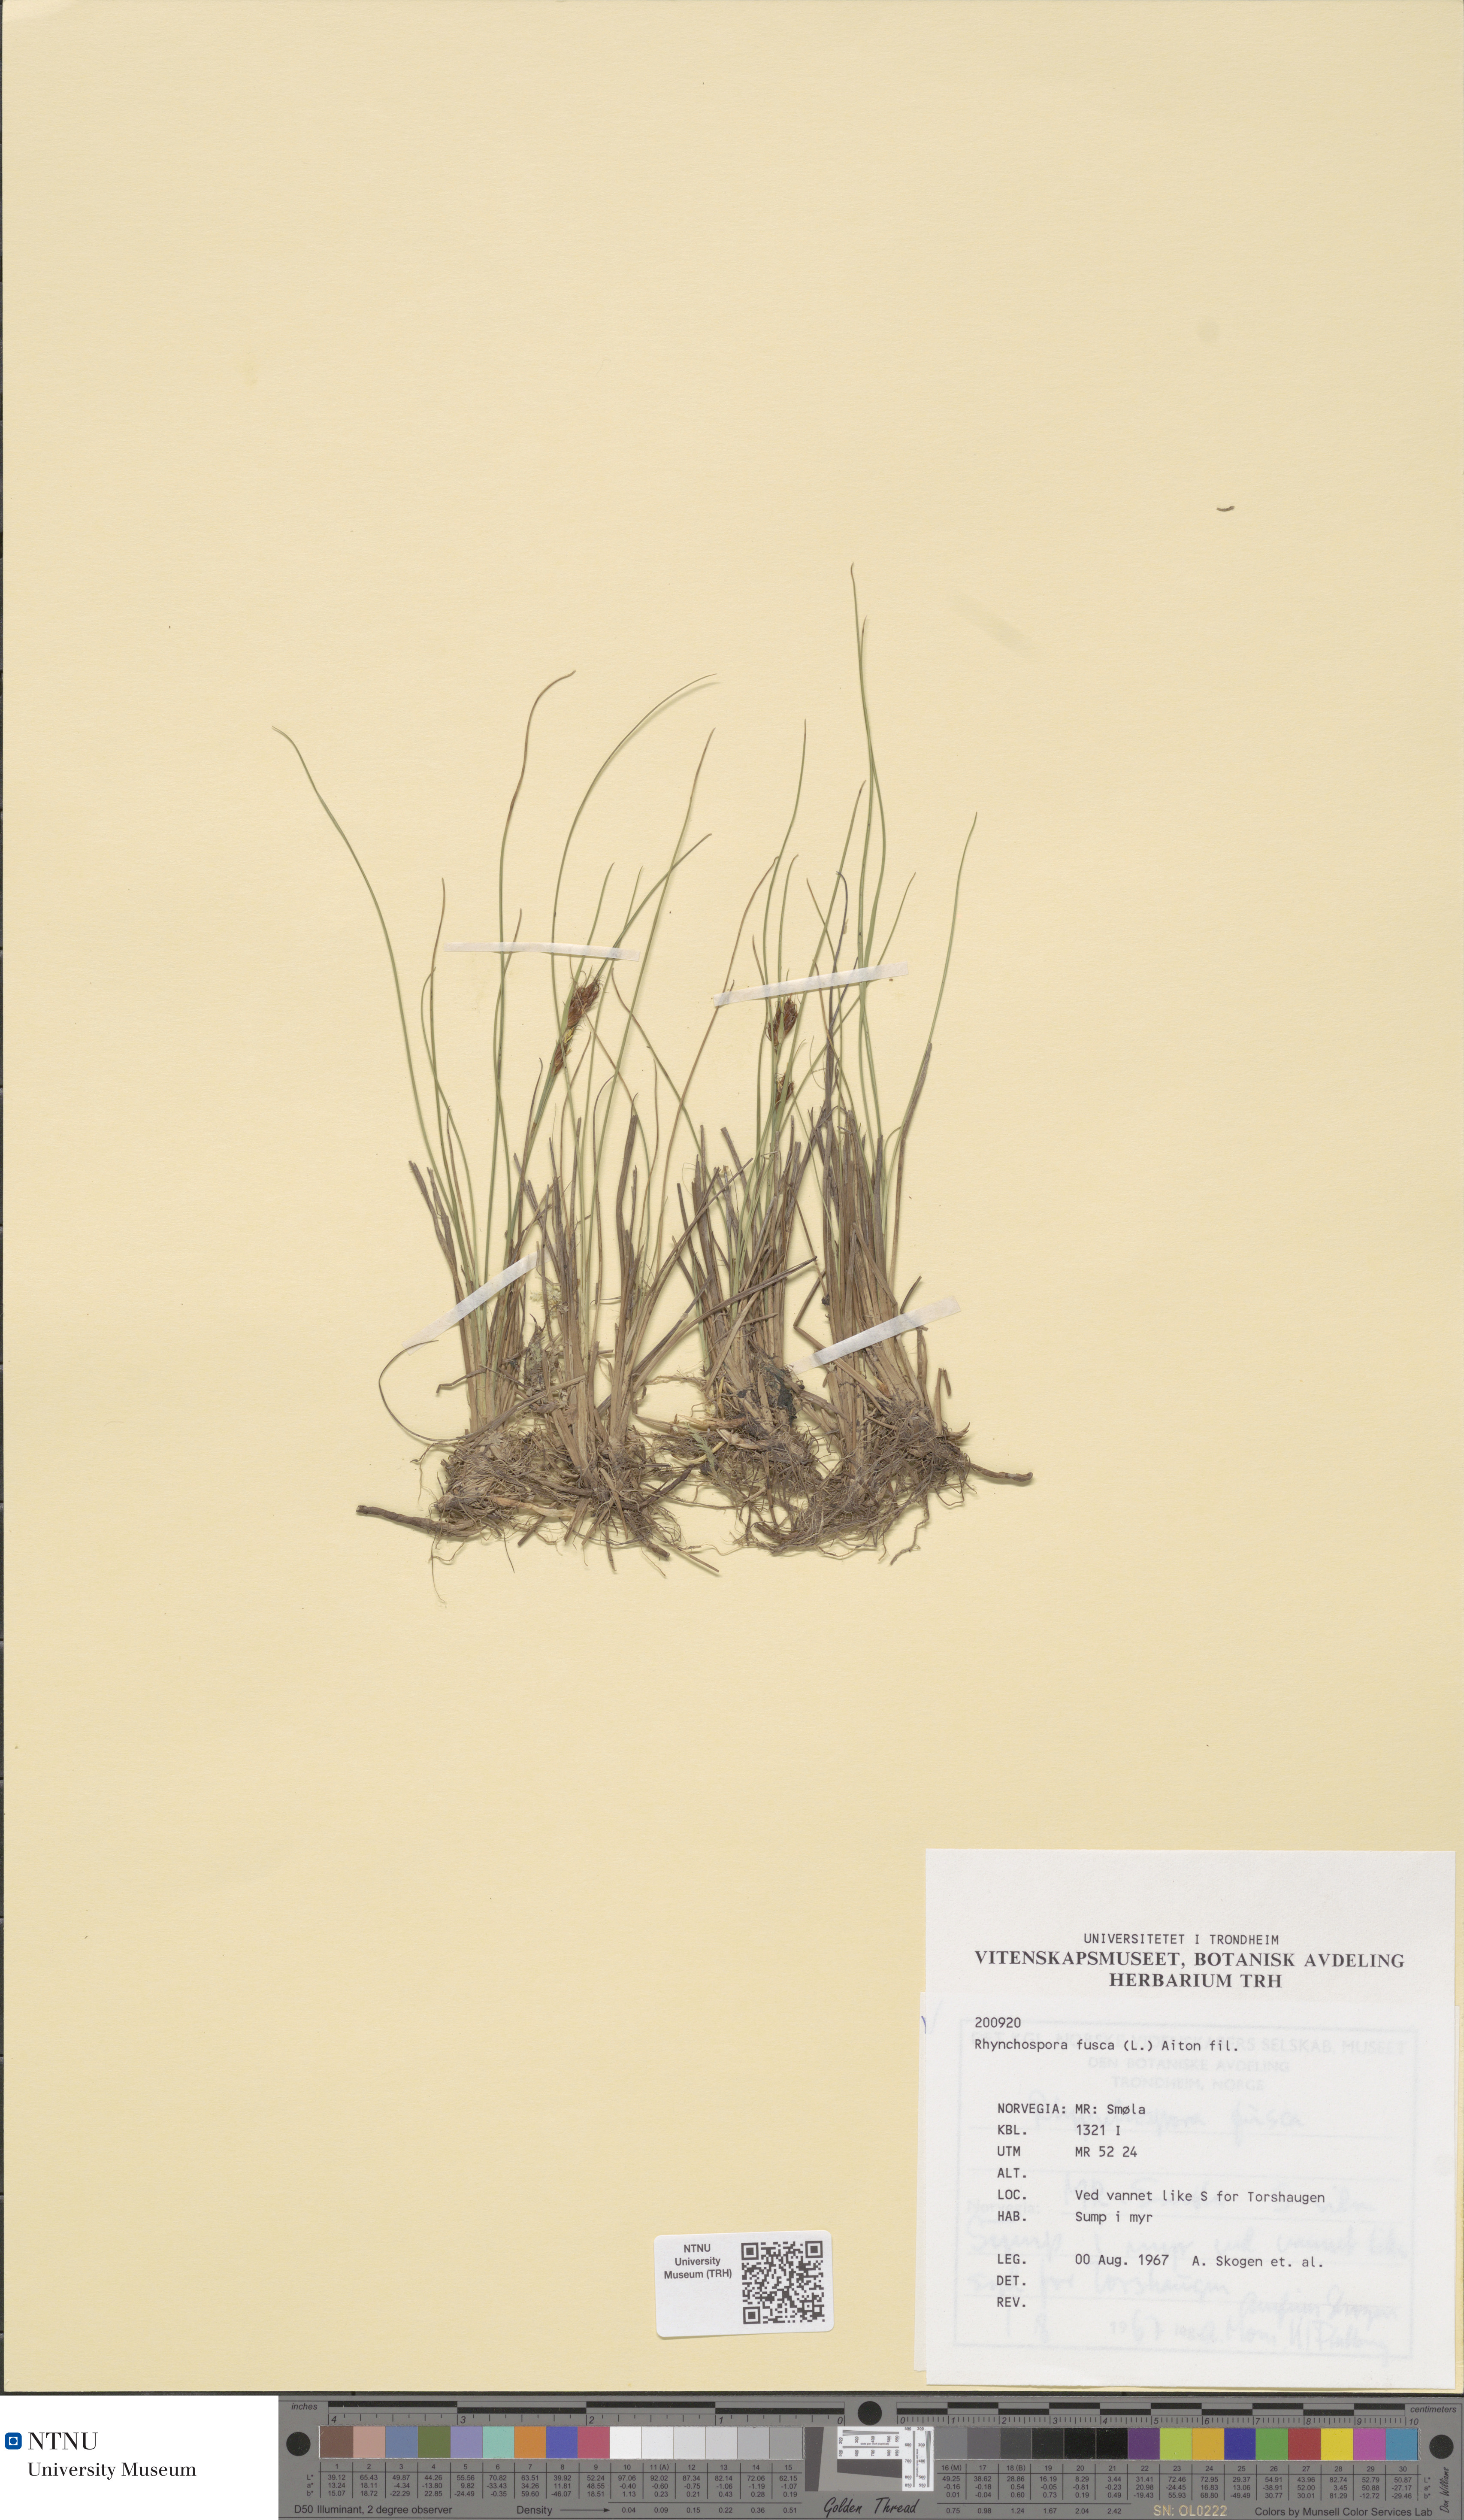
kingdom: Plantae
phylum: Tracheophyta
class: Liliopsida
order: Poales
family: Cyperaceae
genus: Rhynchospora
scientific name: Rhynchospora fusca
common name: Brown beak-sedge
